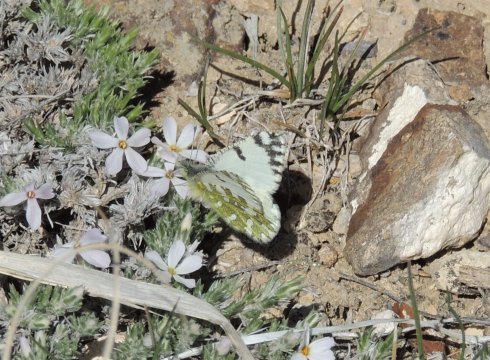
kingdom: Animalia
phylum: Arthropoda
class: Insecta
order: Lepidoptera
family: Pieridae
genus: Euchloe
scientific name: Euchloe lotta
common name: Desert Marble
